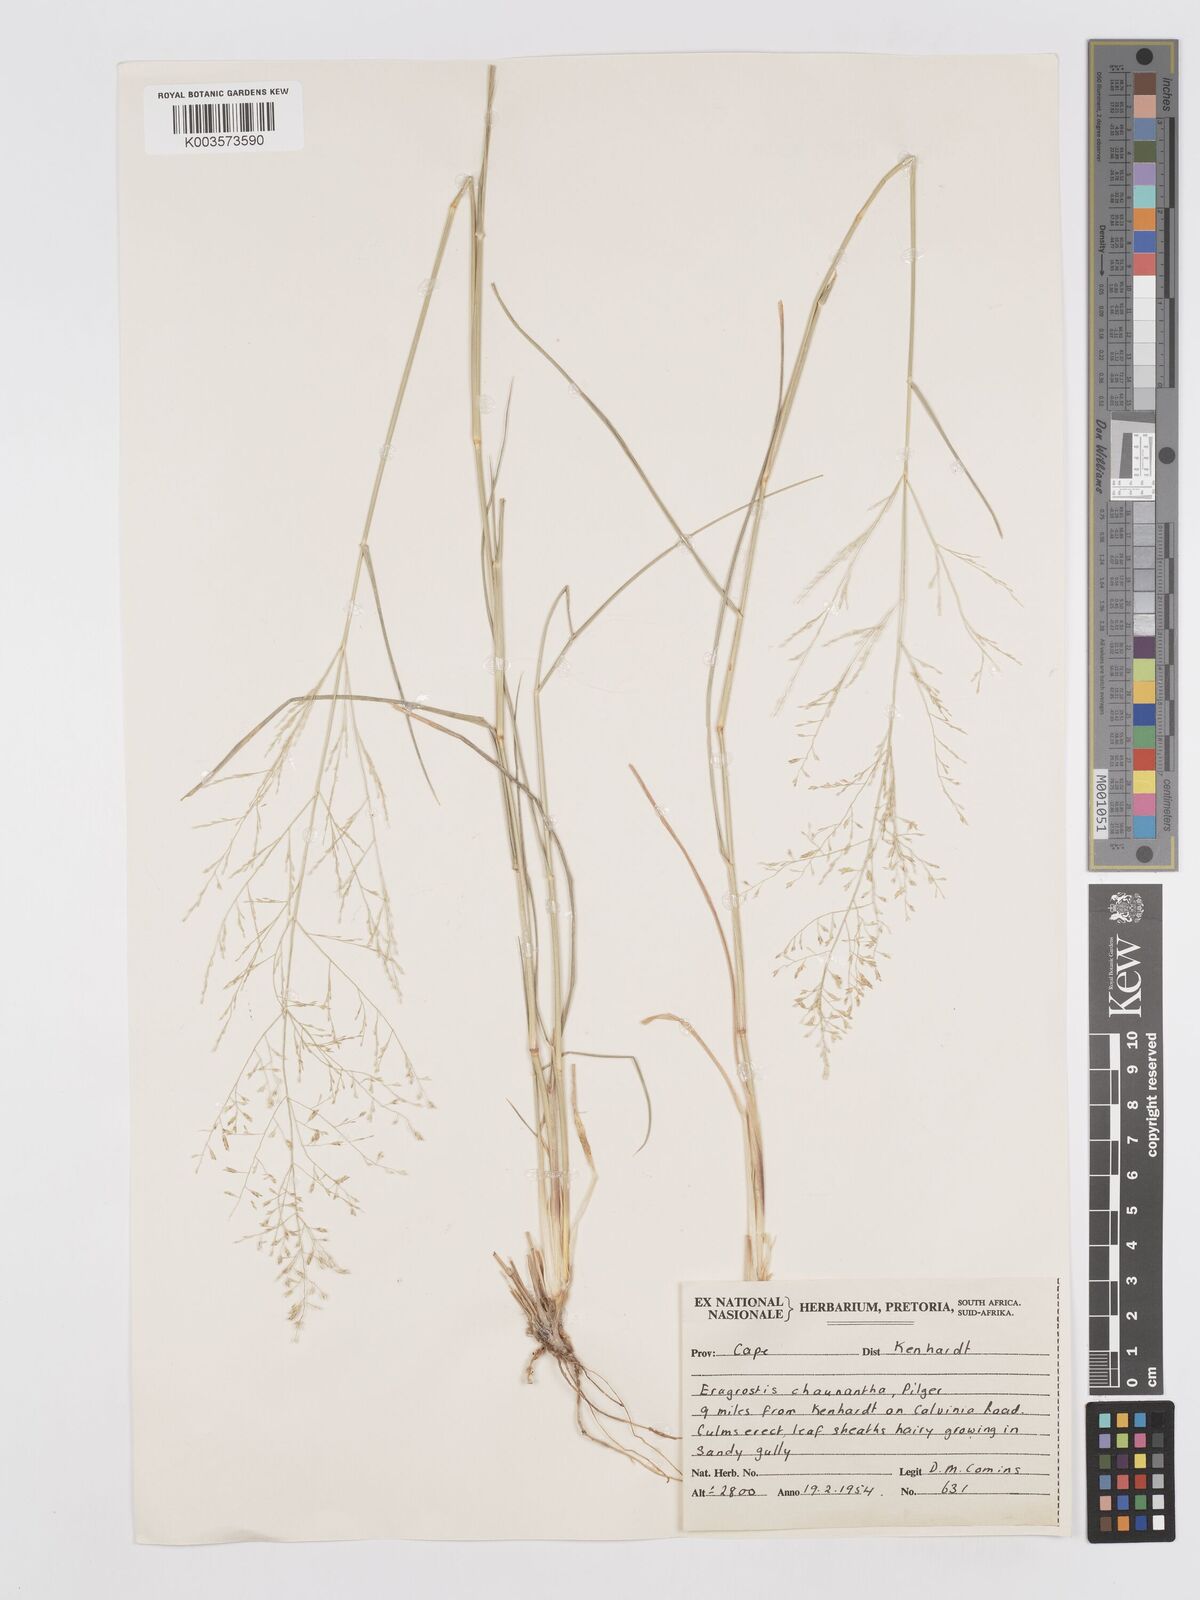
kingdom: Plantae
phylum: Tracheophyta
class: Liliopsida
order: Poales
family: Poaceae
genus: Eragrostis
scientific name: Eragrostis lehmanniana
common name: Lehmann lovegrass
